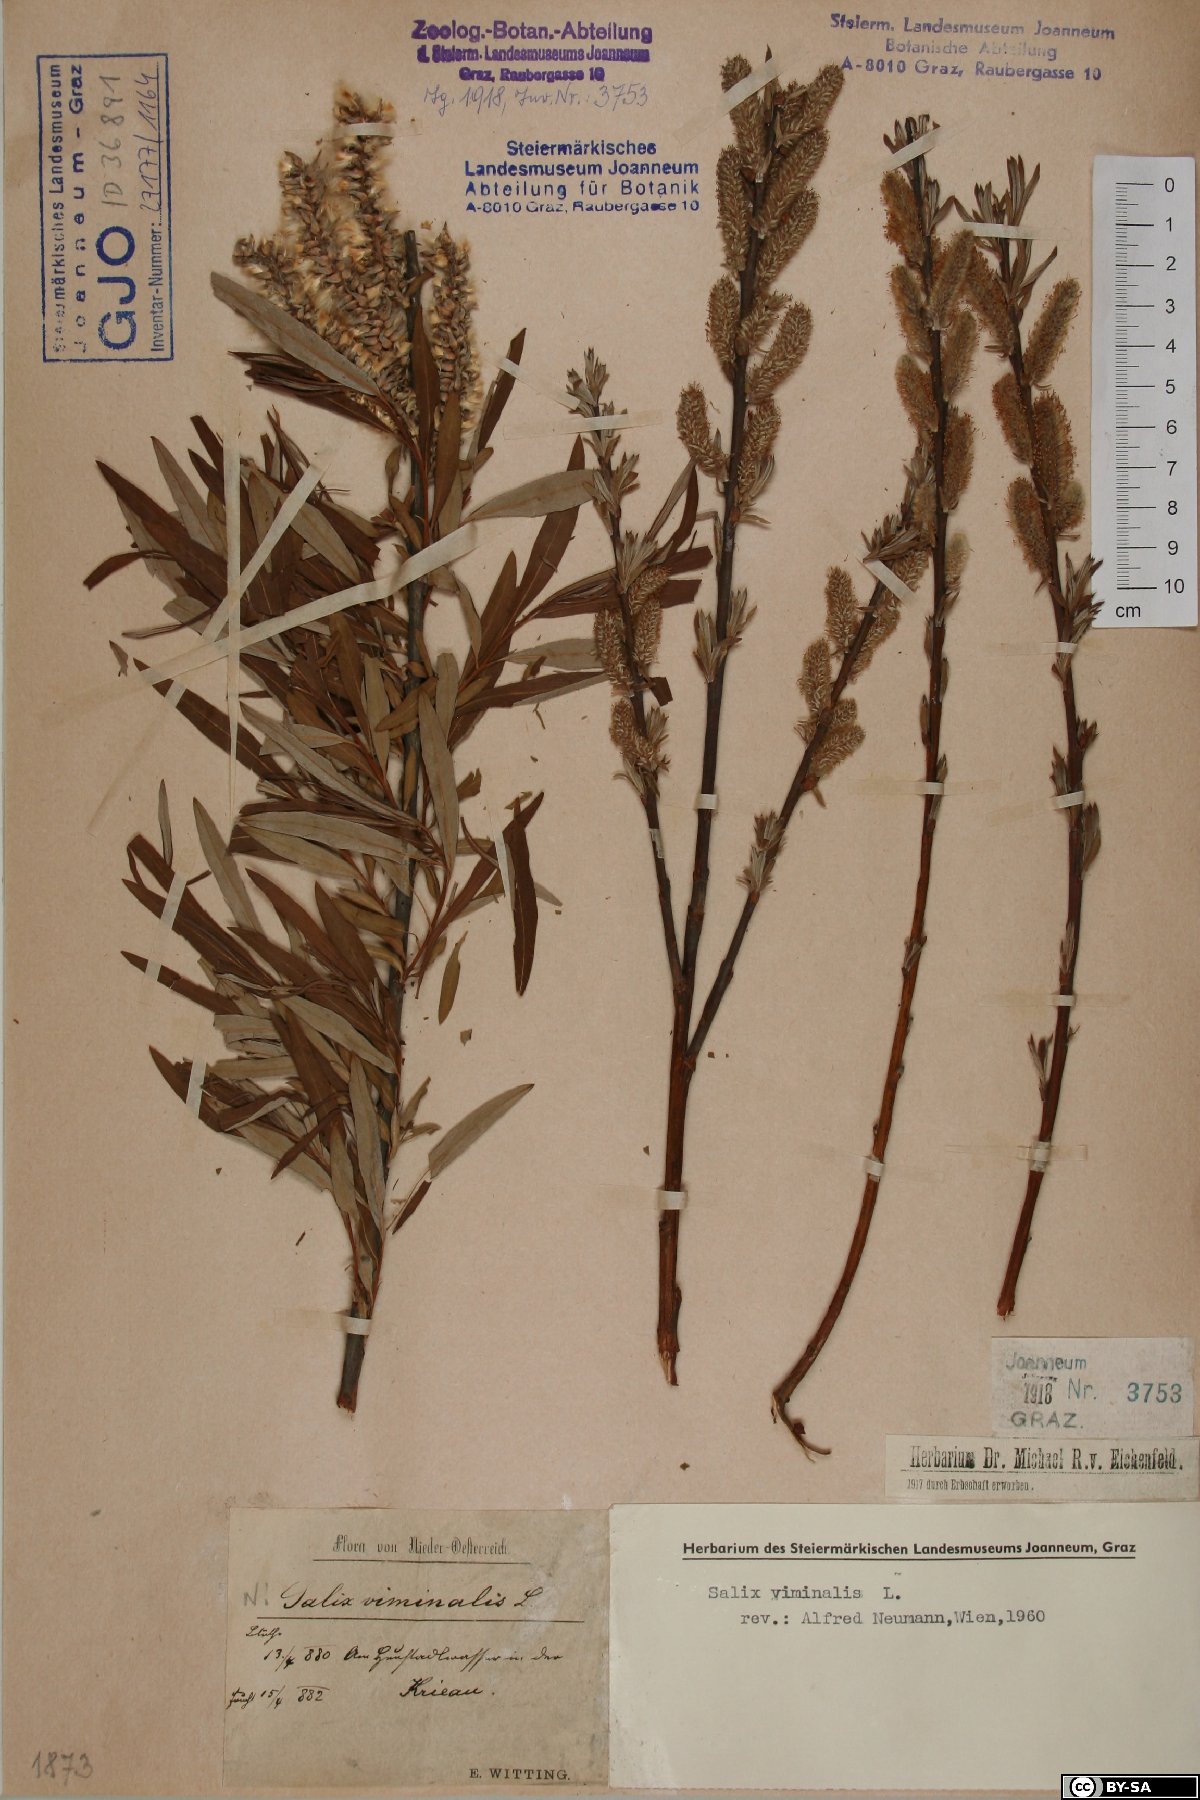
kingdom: Plantae
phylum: Tracheophyta
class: Magnoliopsida
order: Malpighiales
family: Salicaceae
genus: Salix
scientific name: Salix viminalis
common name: Osier
